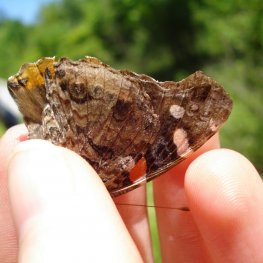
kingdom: Animalia
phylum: Arthropoda
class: Insecta
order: Lepidoptera
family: Nymphalidae
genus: Vanessa
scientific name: Vanessa atalanta
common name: Red Admiral
